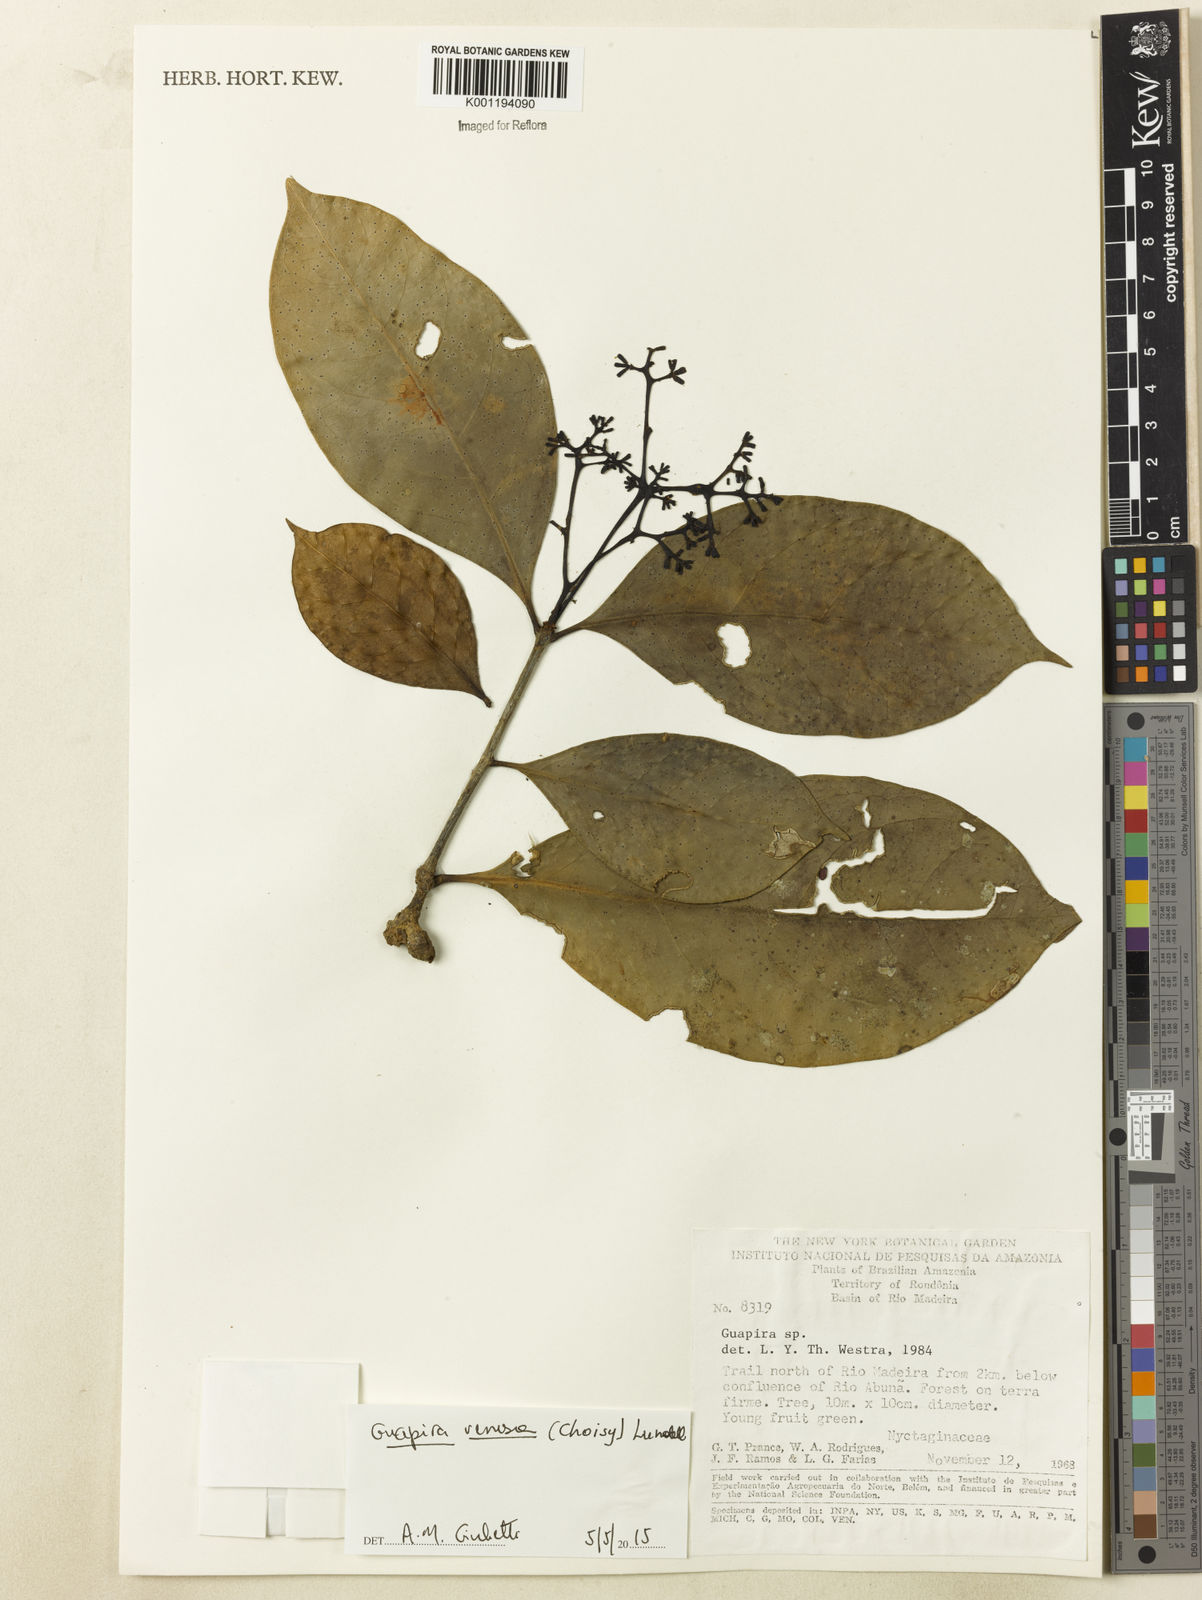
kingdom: Plantae
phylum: Tracheophyta
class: Magnoliopsida
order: Caryophyllales
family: Nyctaginaceae
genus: Guapira
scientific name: Guapira venosa
